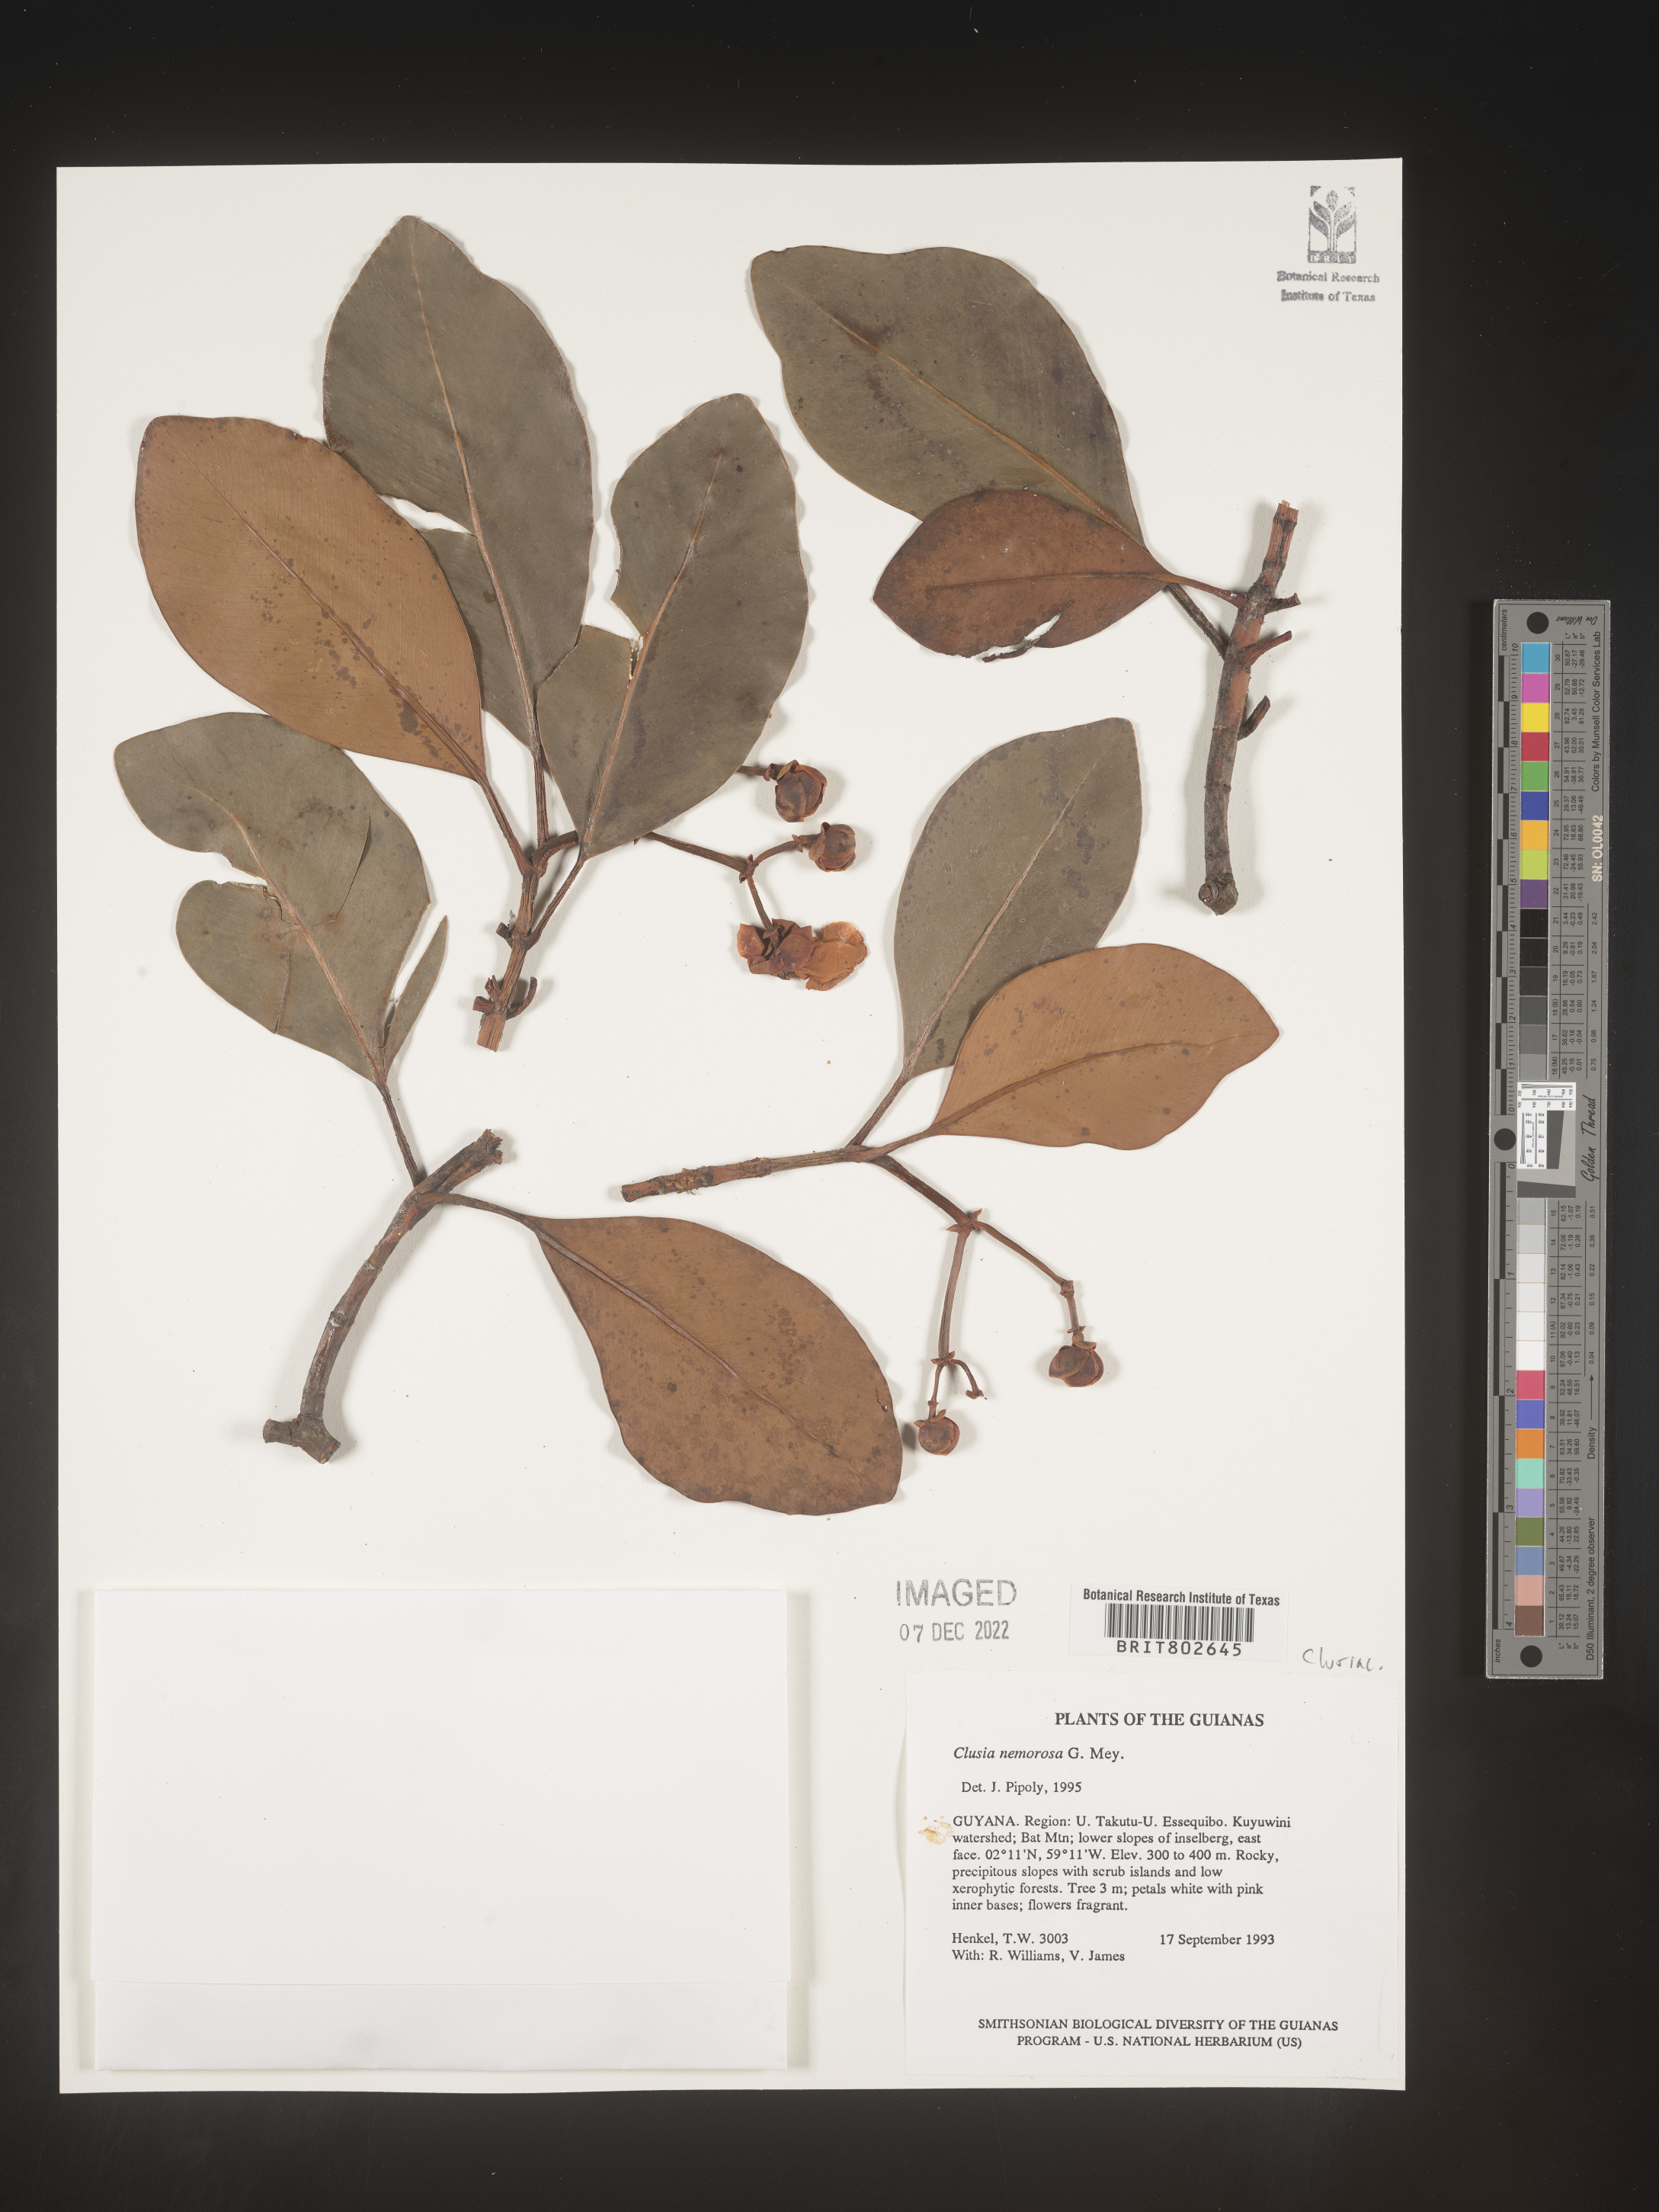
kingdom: Plantae
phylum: Tracheophyta
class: Magnoliopsida
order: Malpighiales
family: Clusiaceae
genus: Clusia
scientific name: Clusia nemorosa
